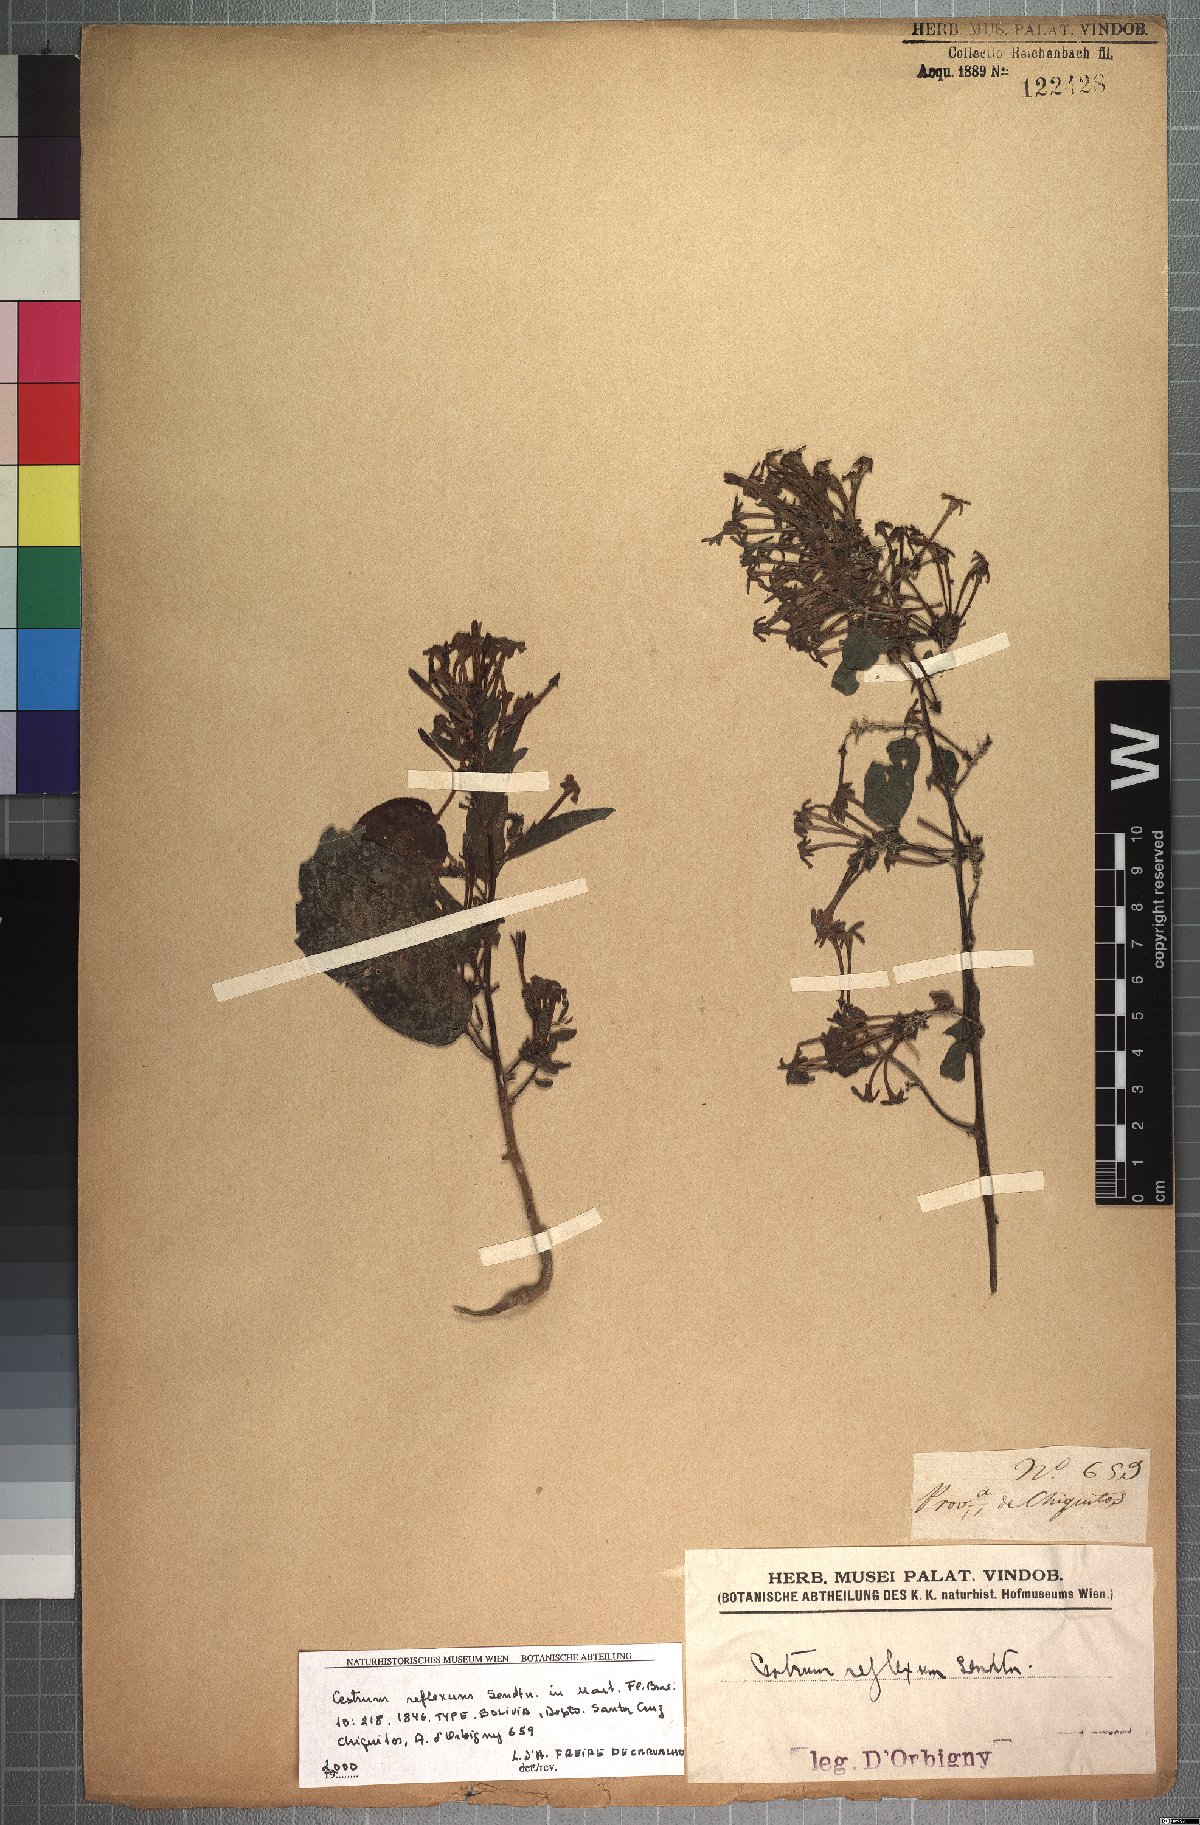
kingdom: Plantae
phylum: Tracheophyta
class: Magnoliopsida
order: Solanales
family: Solanaceae
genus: Cestrum
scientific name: Cestrum reflexum
